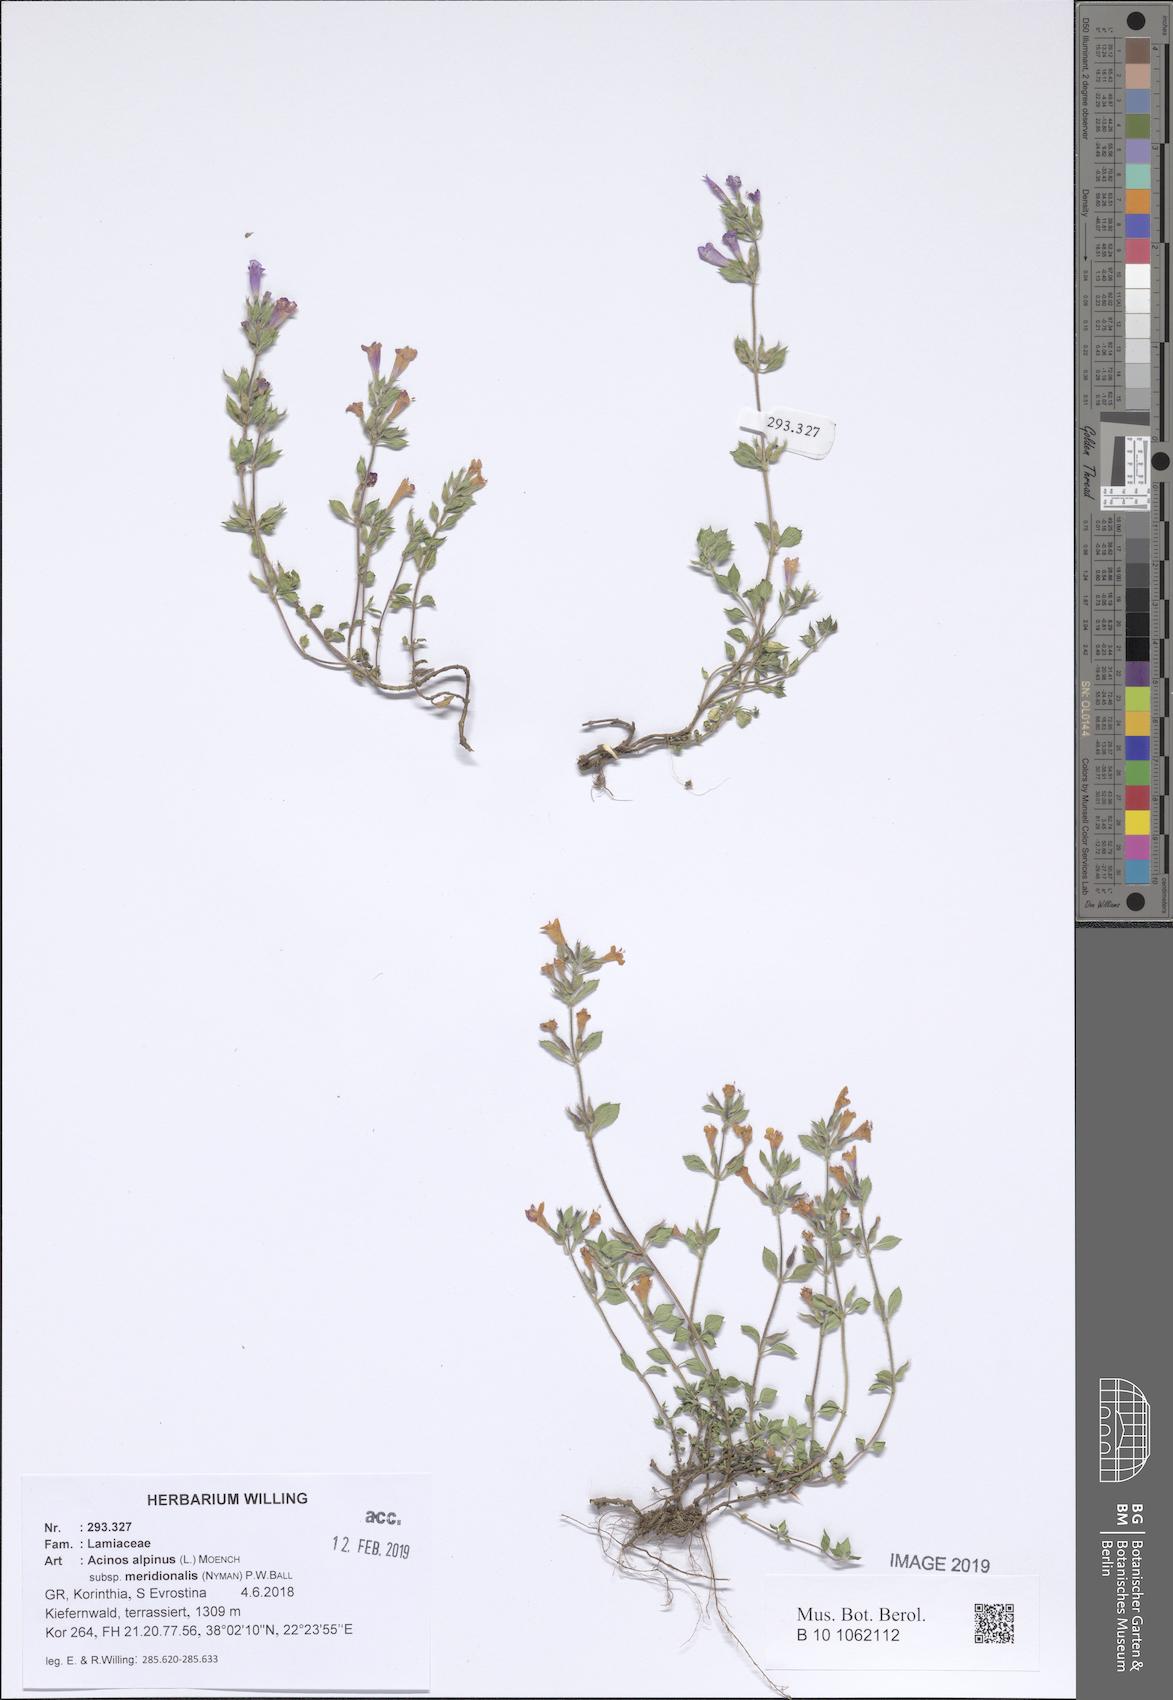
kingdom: Plantae
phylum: Tracheophyta
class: Magnoliopsida
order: Lamiales
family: Lamiaceae
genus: Clinopodium
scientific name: Clinopodium alpinum
